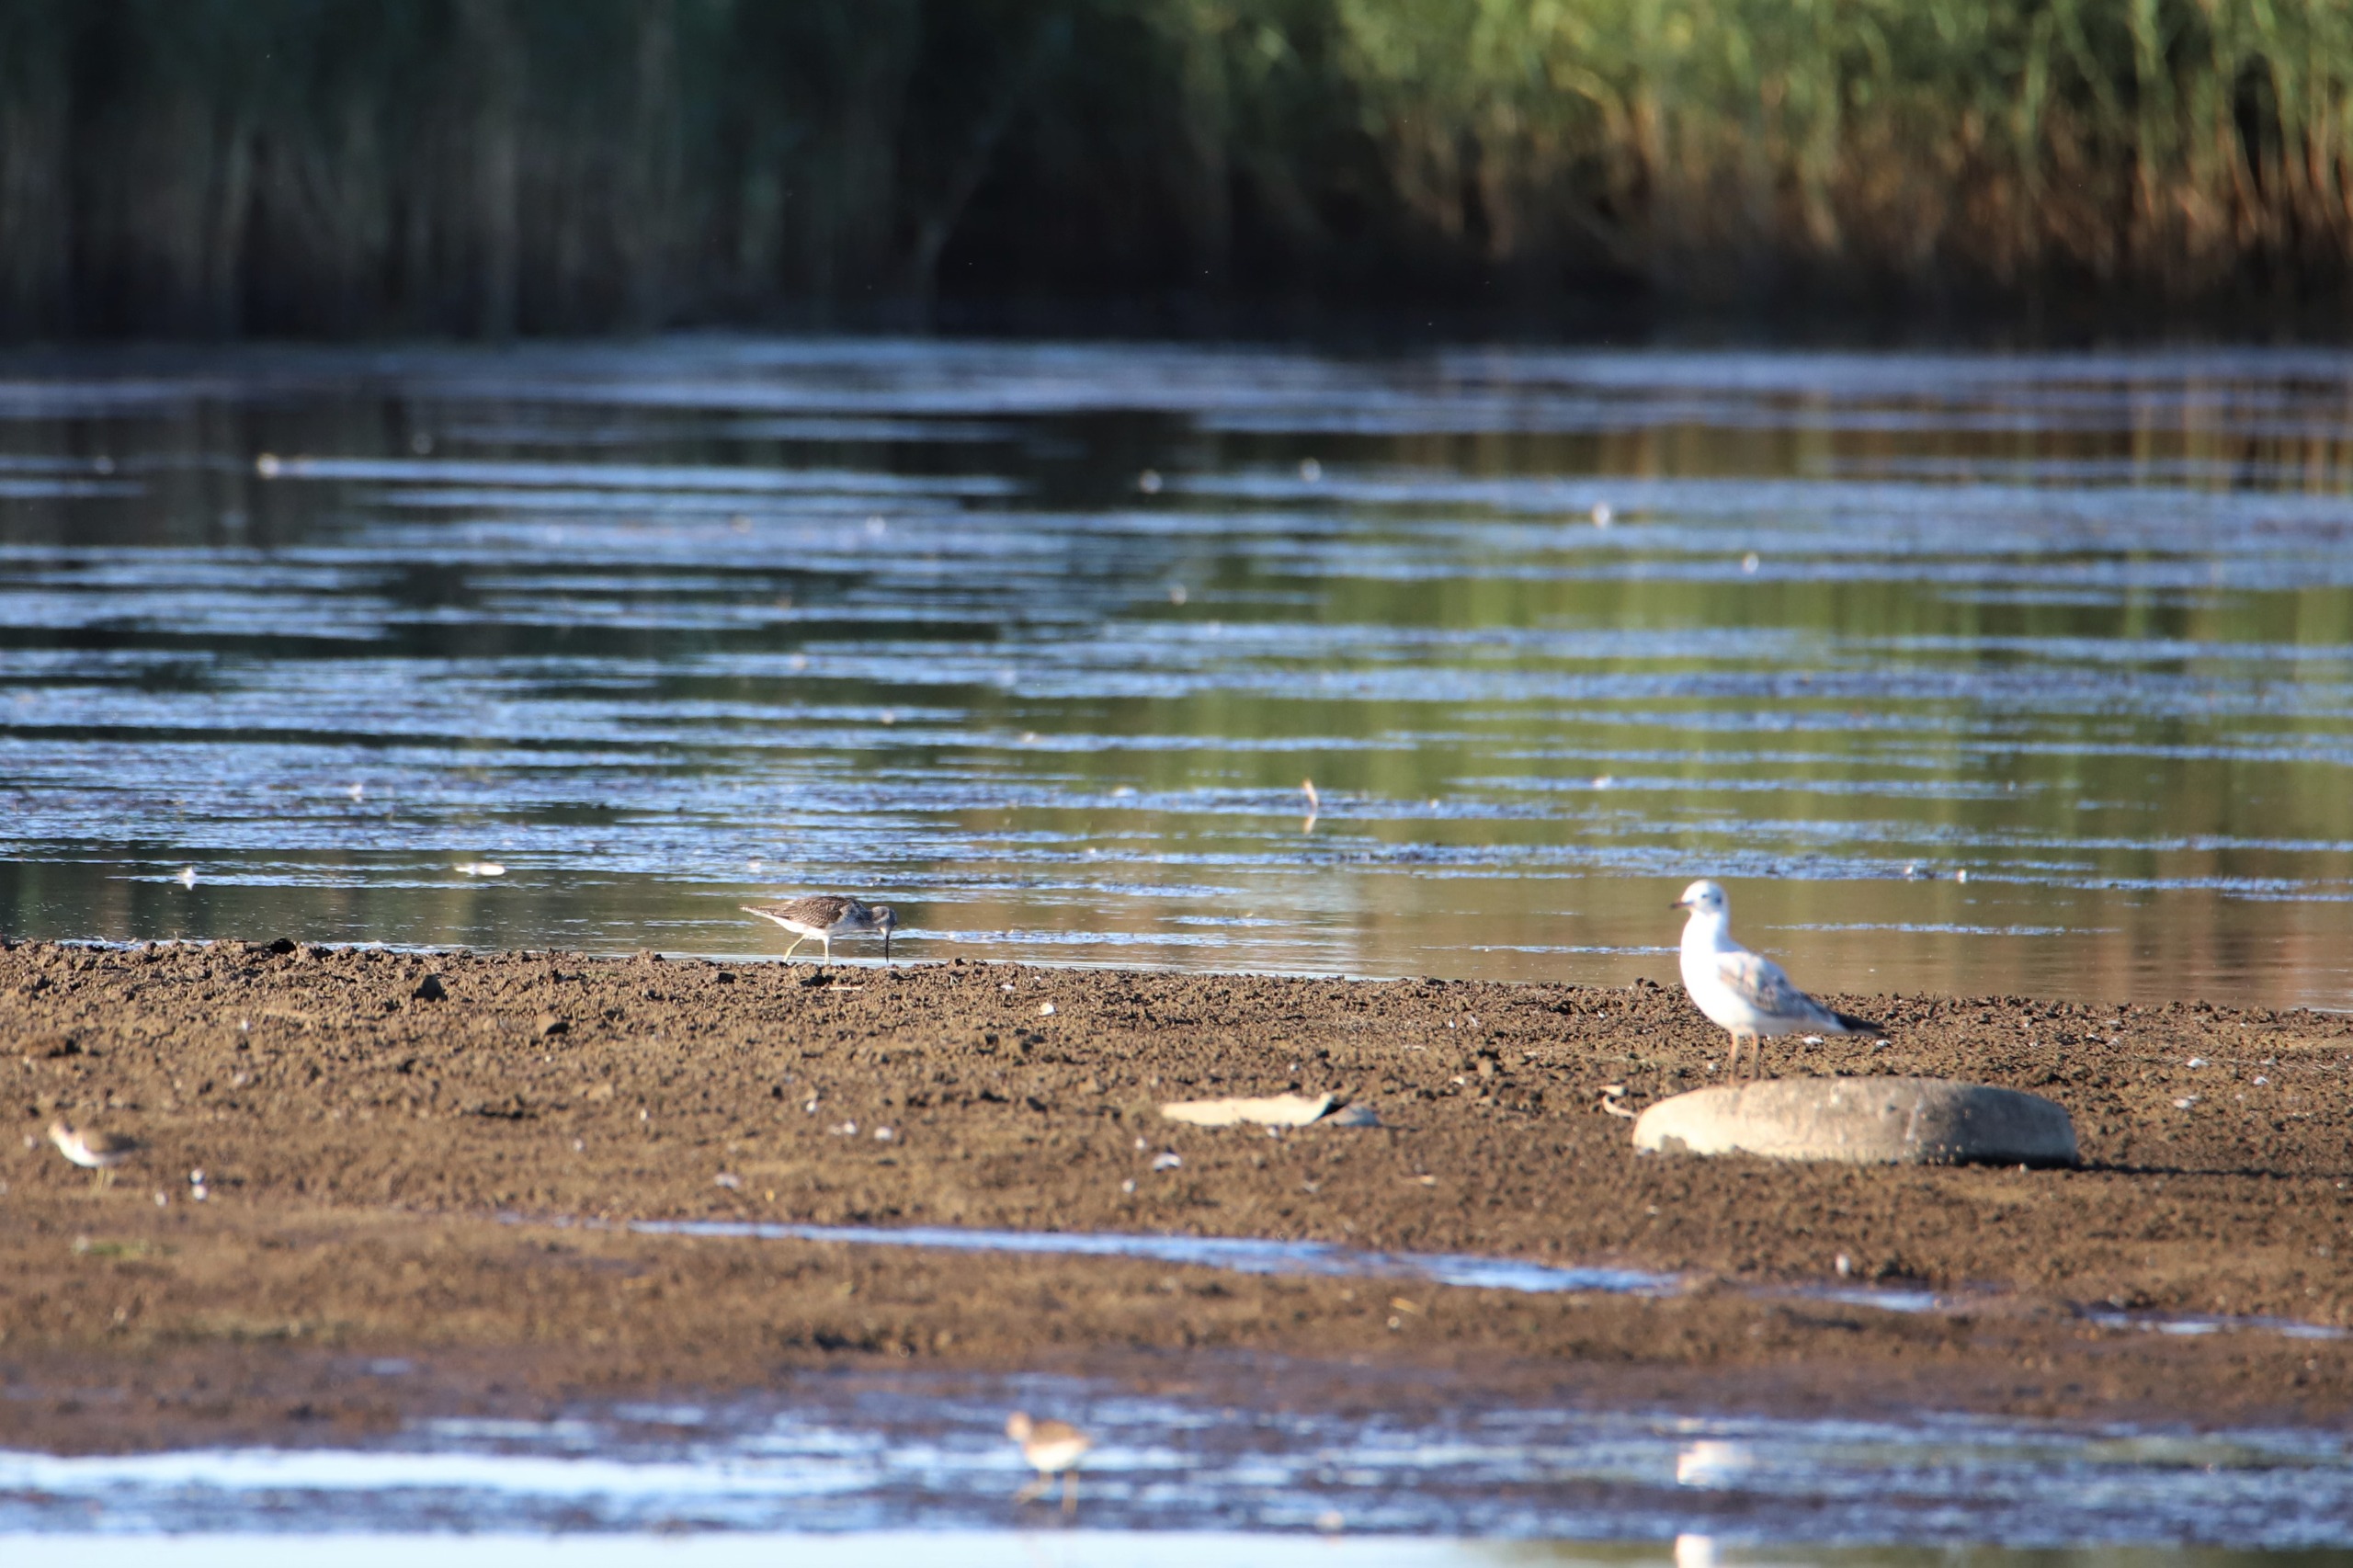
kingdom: Animalia
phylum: Chordata
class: Aves
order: Charadriiformes
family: Scolopacidae
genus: Tringa
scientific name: Tringa nebularia
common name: Hvidklire
